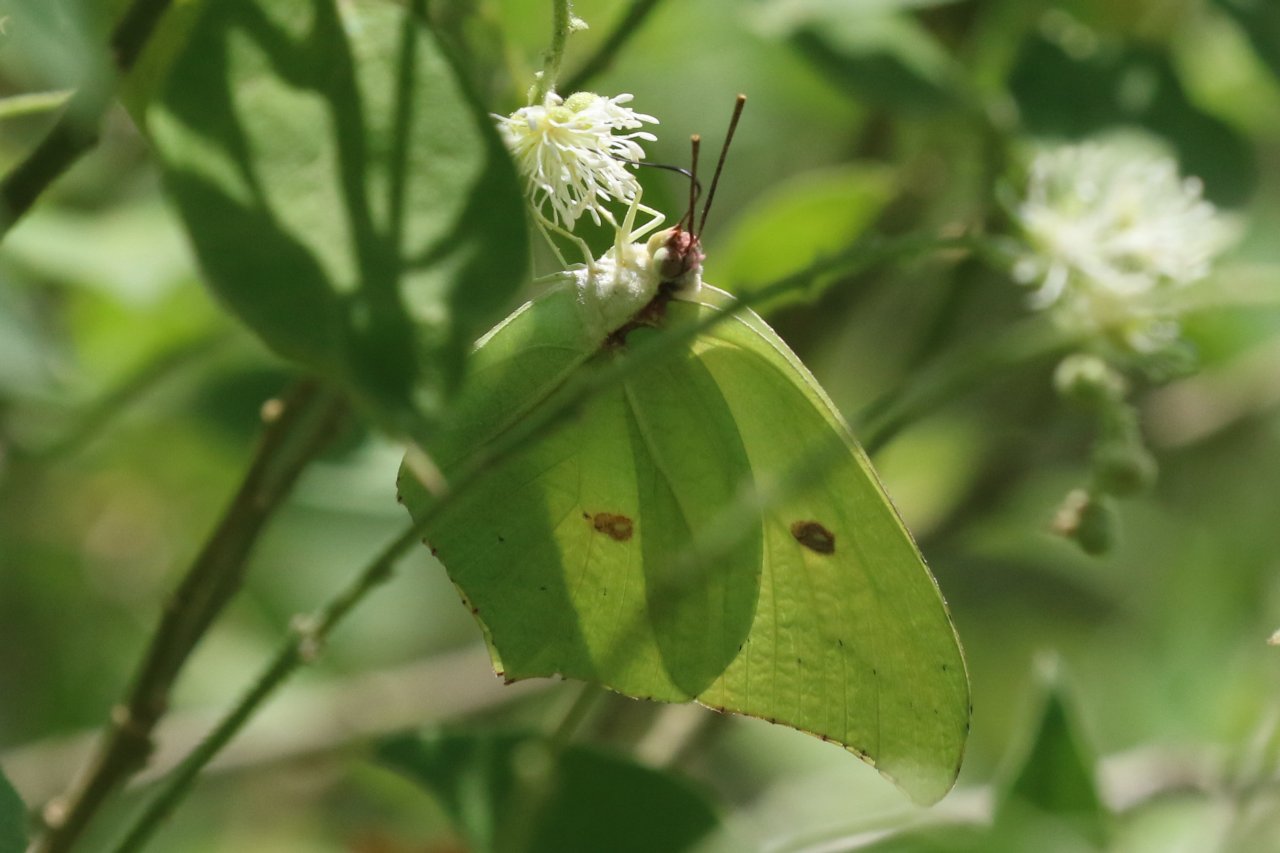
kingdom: Animalia
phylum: Arthropoda
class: Insecta
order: Lepidoptera
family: Pieridae
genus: Anteos
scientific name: Anteos maerula
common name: Yellow Angled-Sulphur
